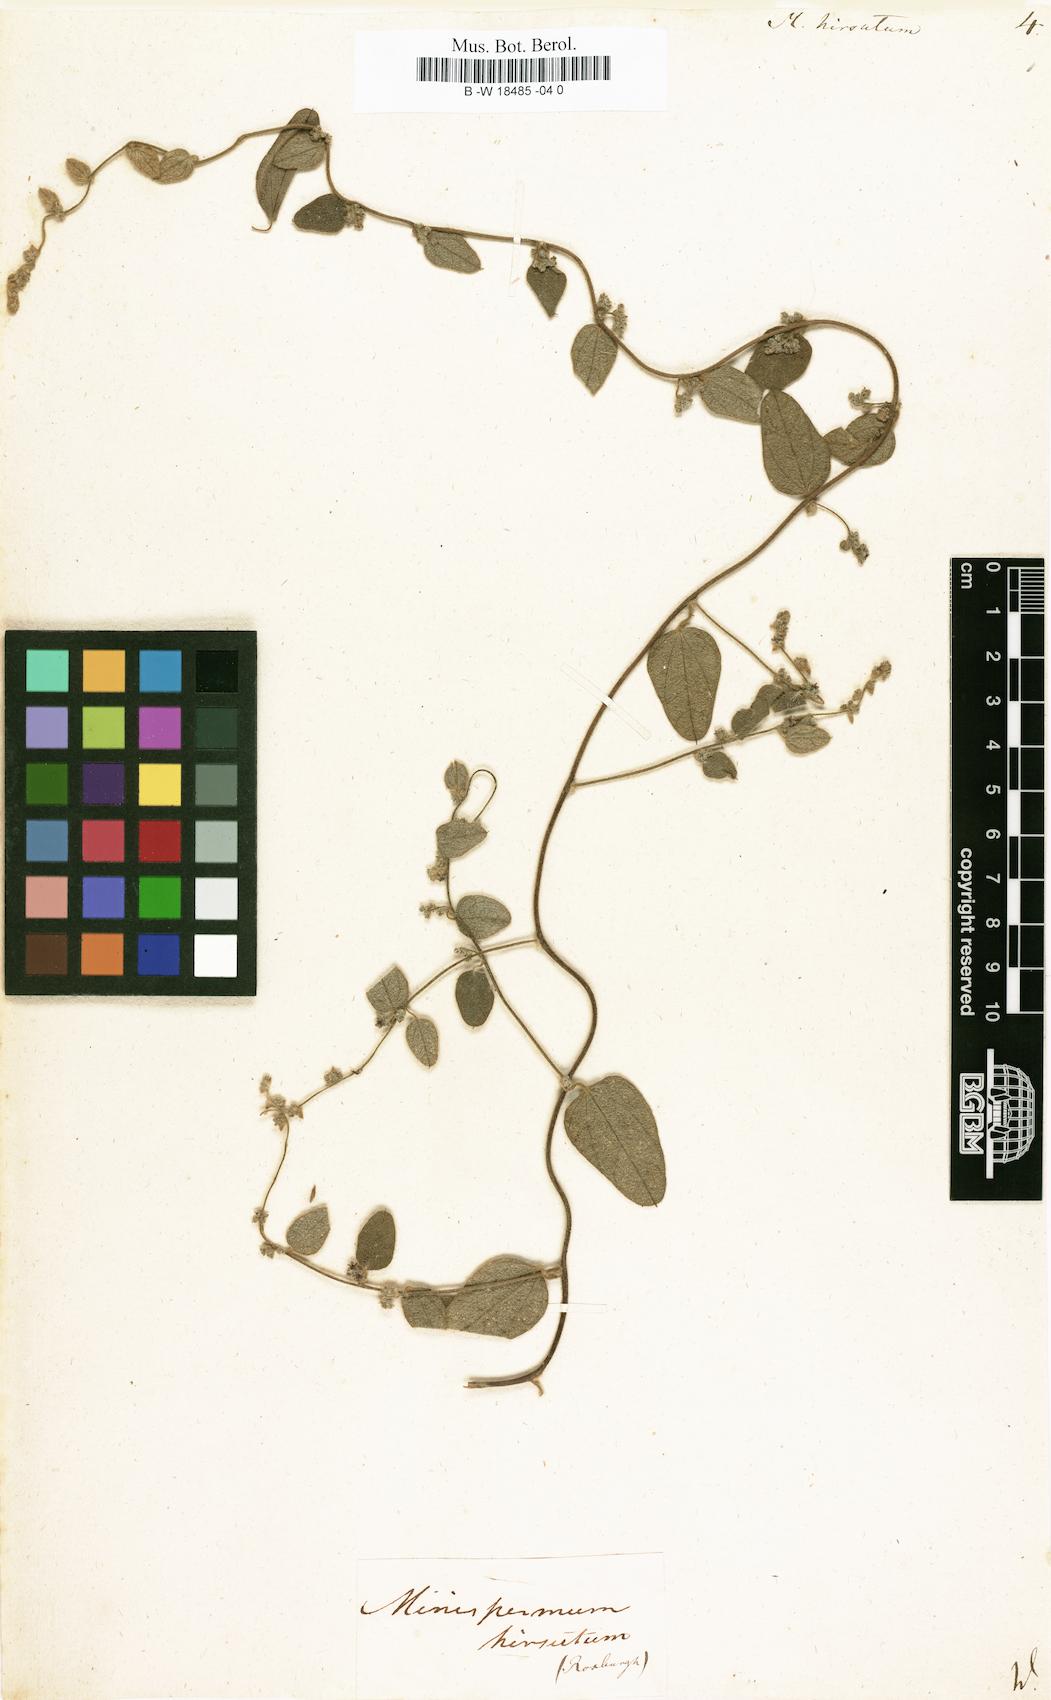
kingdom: Plantae
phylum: Tracheophyta
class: Magnoliopsida
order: Ranunculales
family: Menispermaceae
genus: Cocculus
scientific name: Cocculus hirsutus
